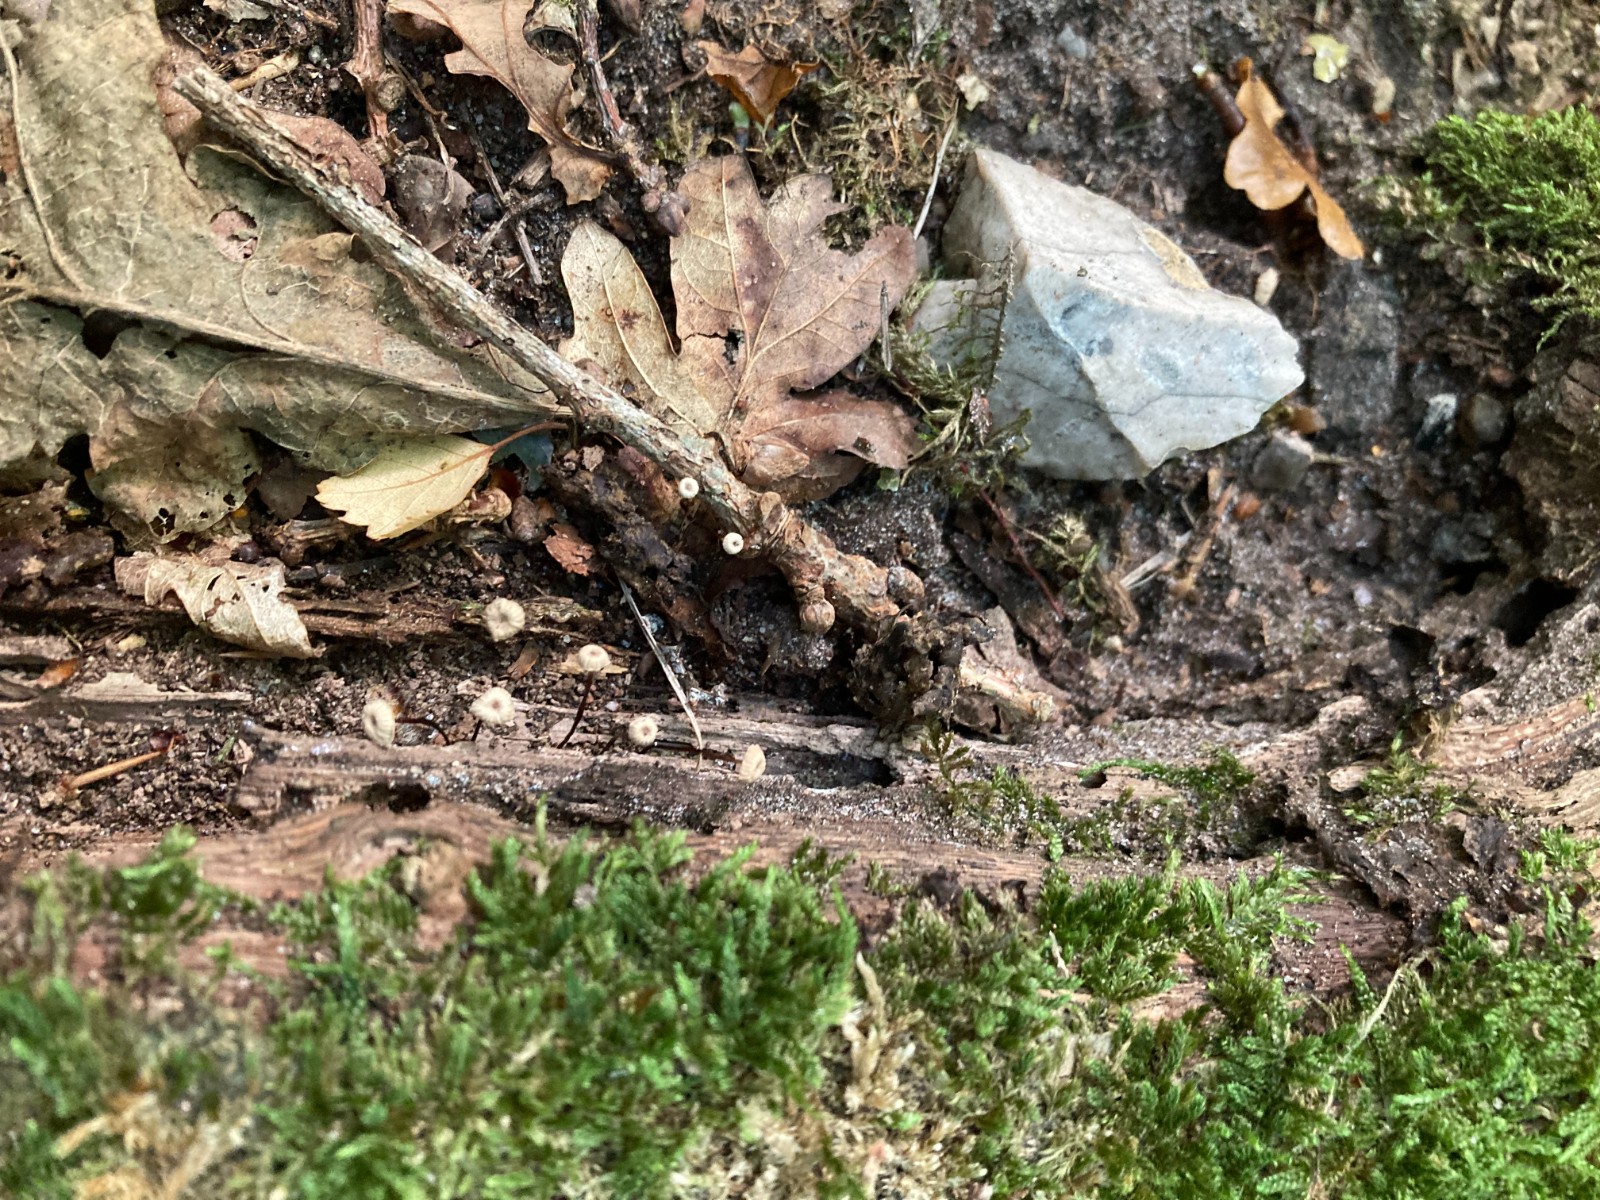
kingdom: Fungi
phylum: Basidiomycota
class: Agaricomycetes
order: Agaricales
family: Marasmiaceae
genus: Marasmius
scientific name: Marasmius rotula
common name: hjul-bruskhat
